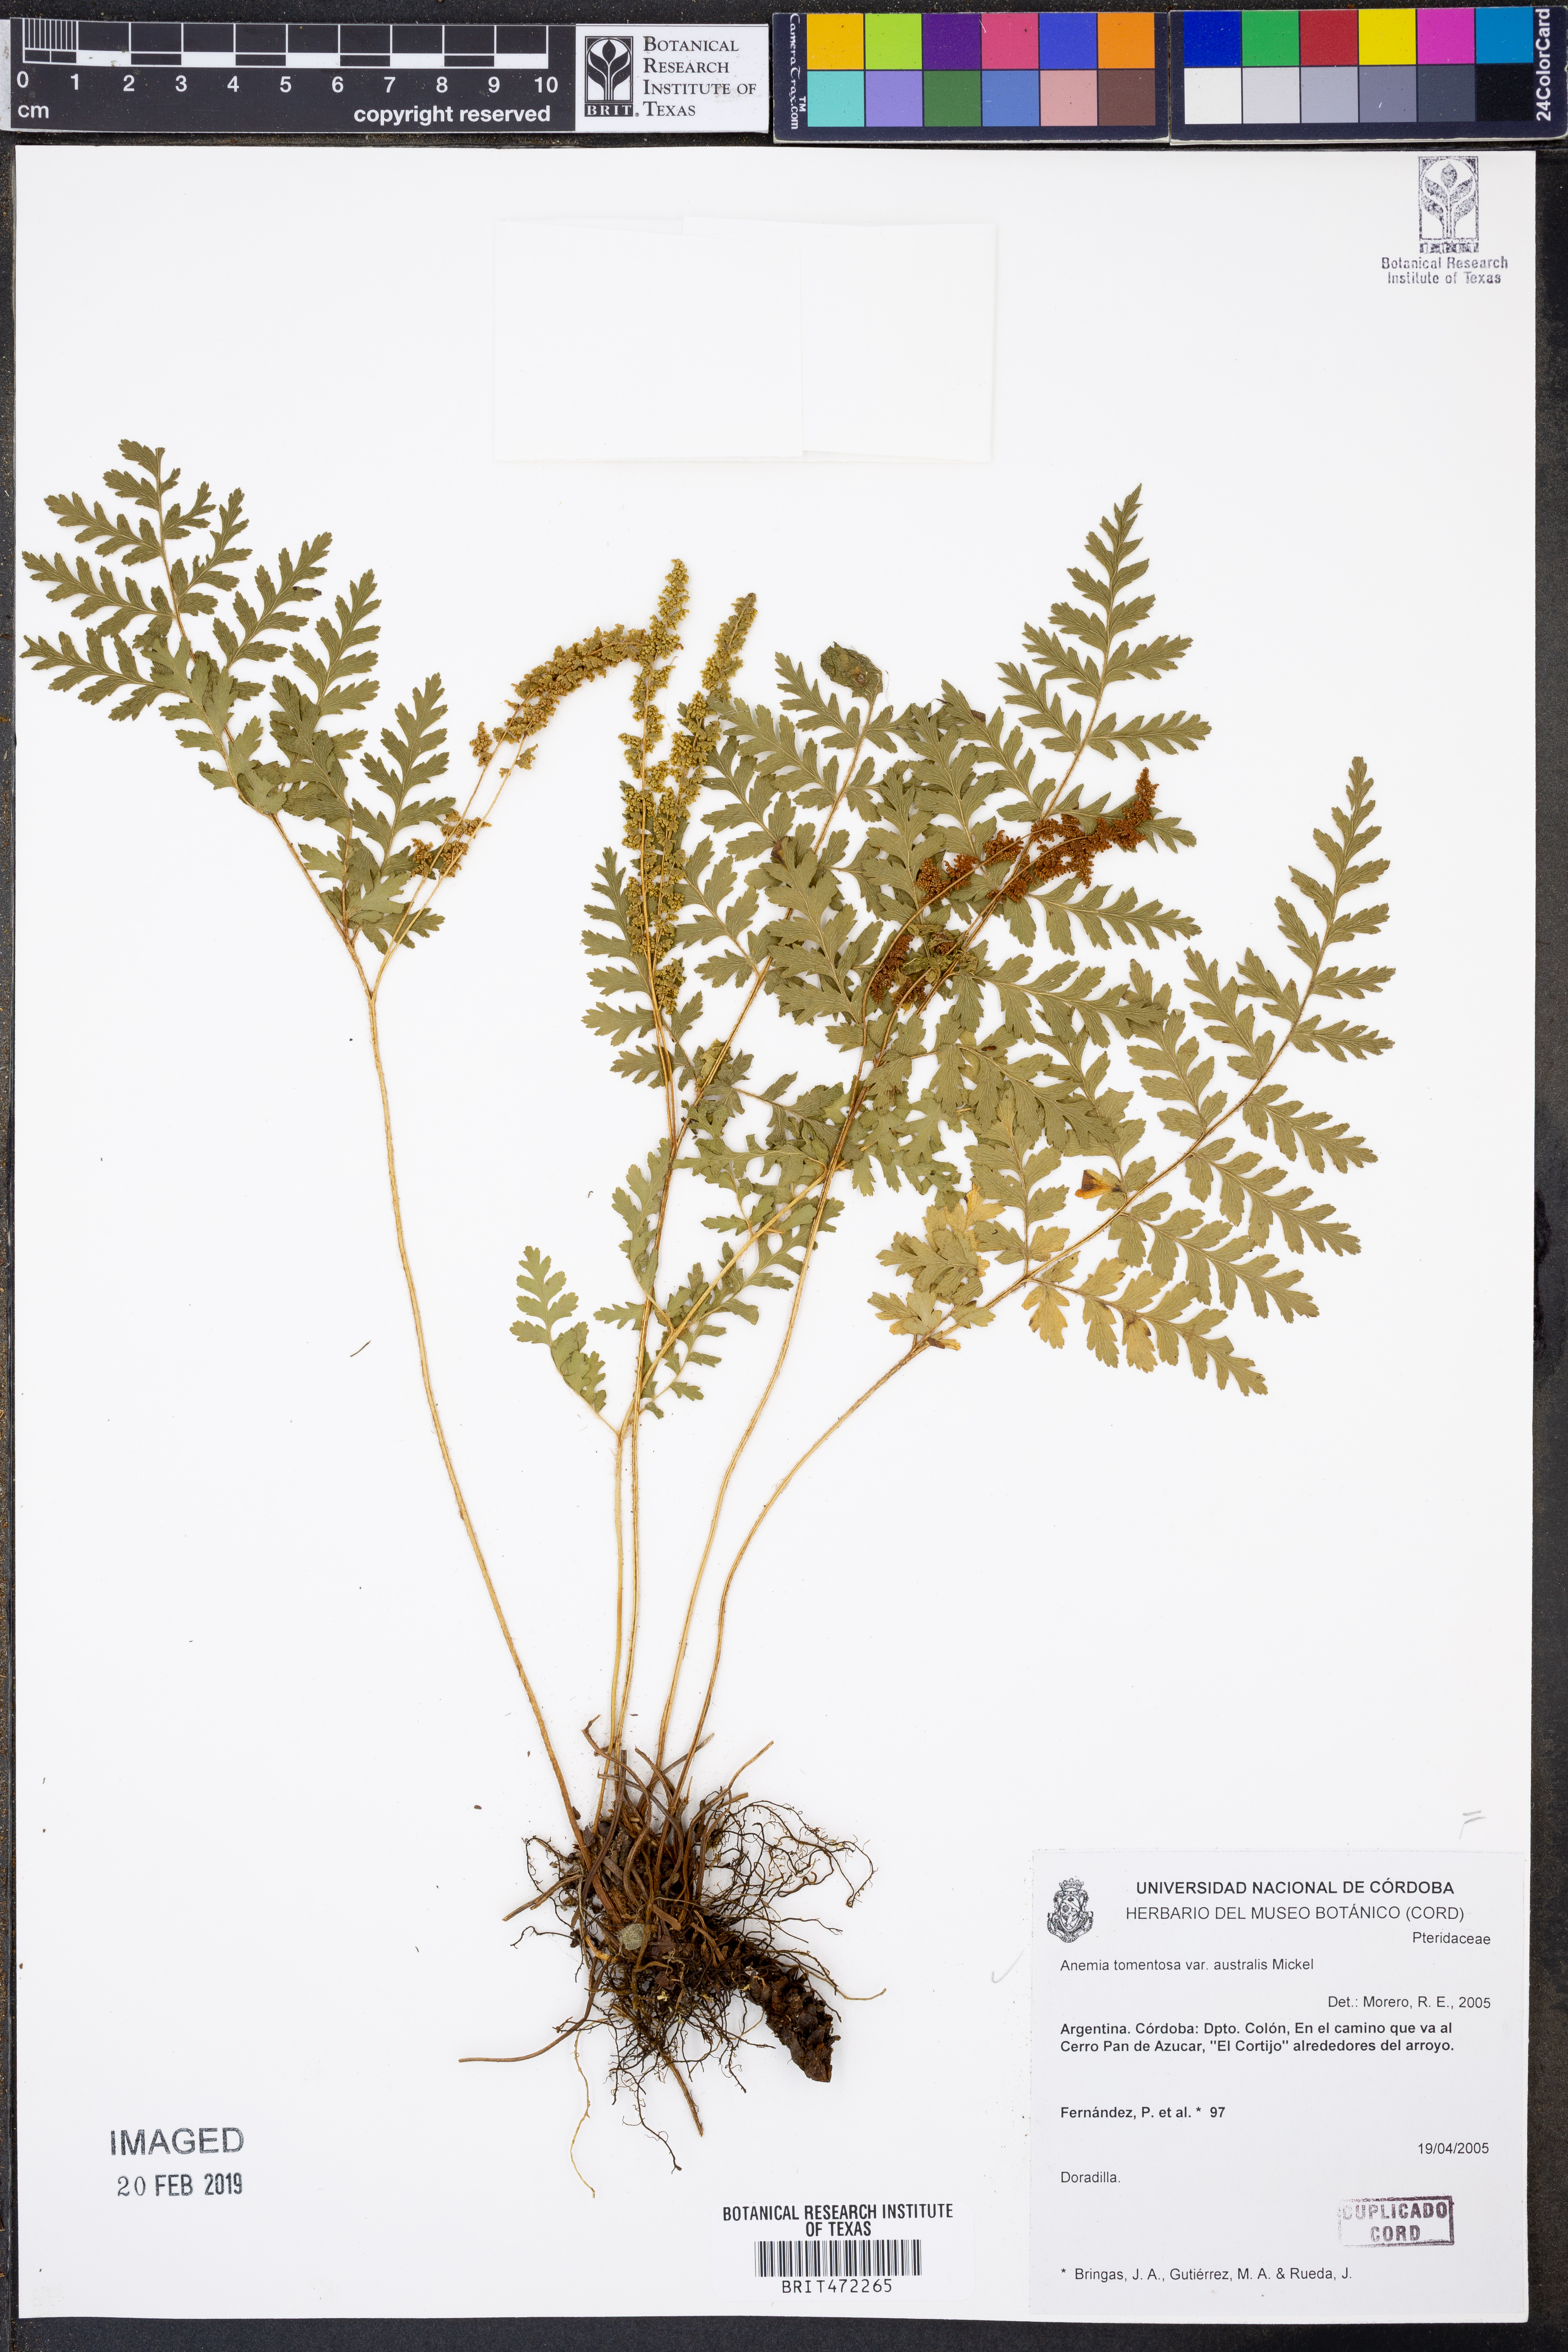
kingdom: Plantae
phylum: Tracheophyta
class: Polypodiopsida
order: Schizaeales
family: Anemiaceae
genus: Anemia
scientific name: Anemia australis
